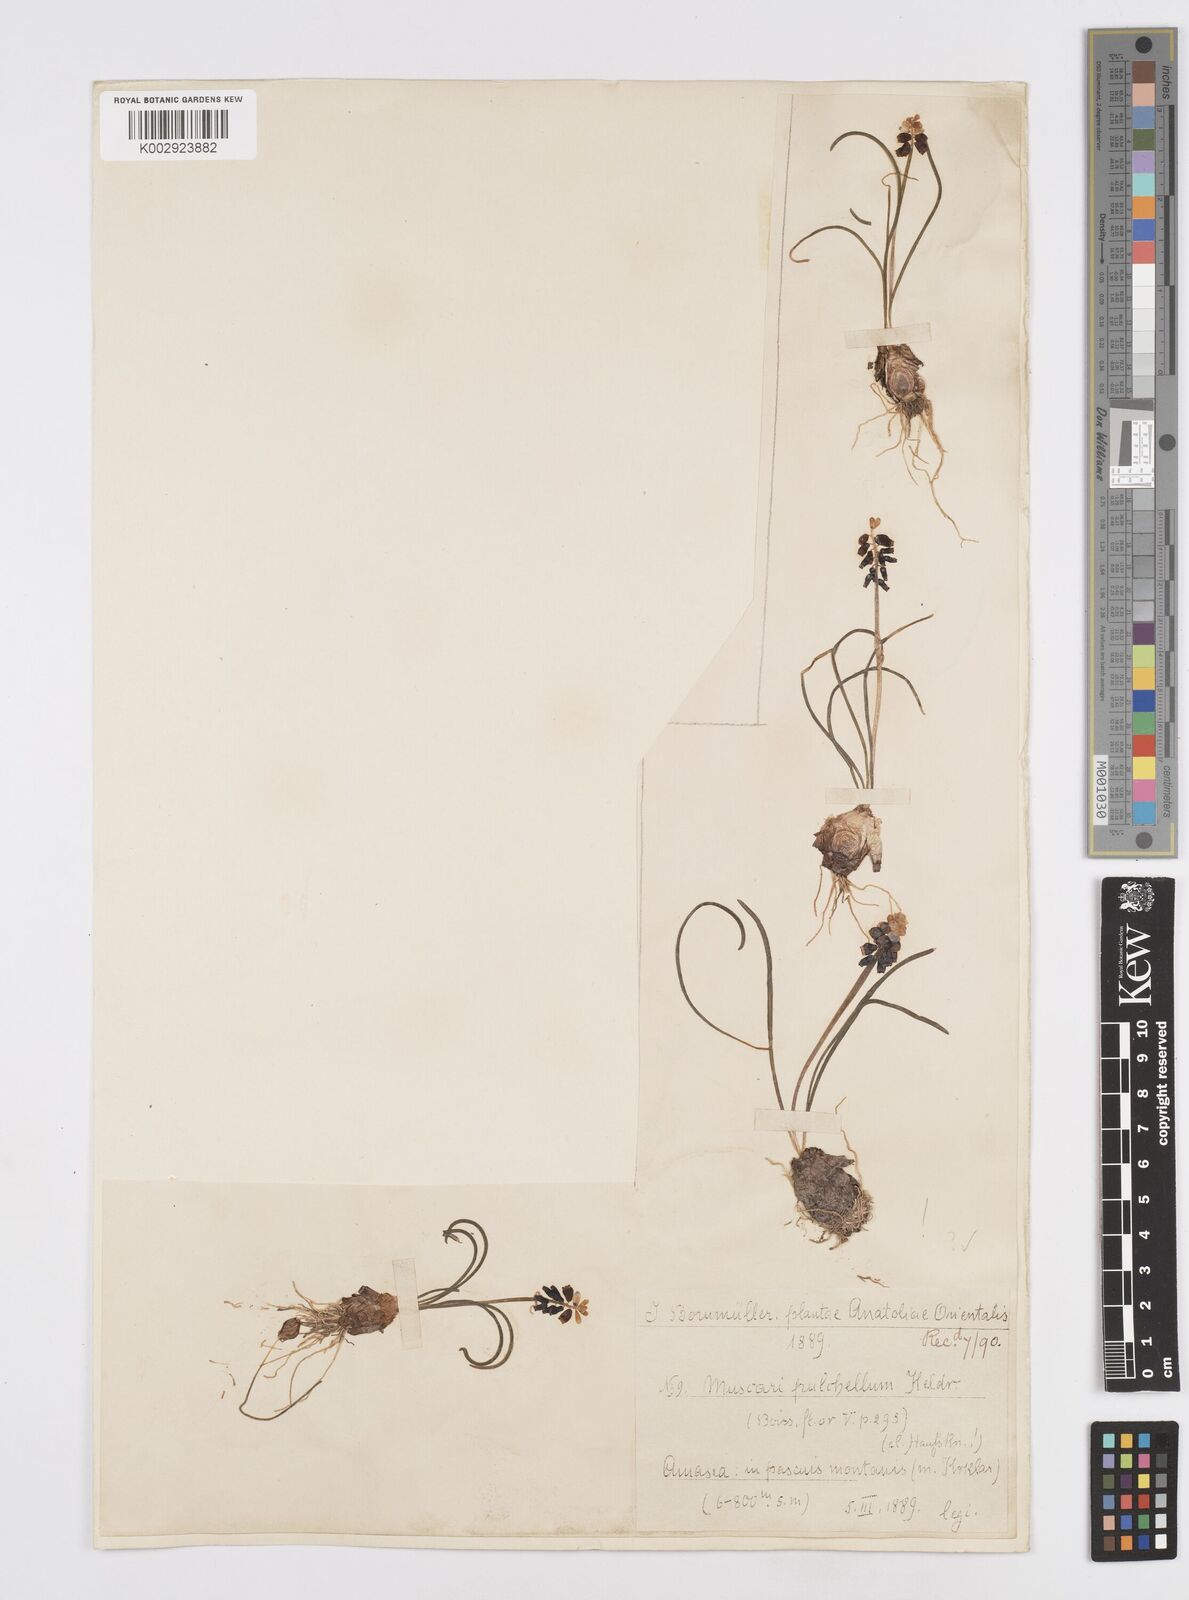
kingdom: Plantae
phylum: Tracheophyta
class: Liliopsida
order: Asparagales
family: Asparagaceae
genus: Muscari
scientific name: Muscari pulchellum
